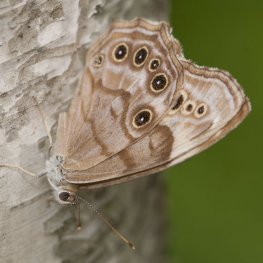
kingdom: Animalia
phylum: Arthropoda
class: Insecta
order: Lepidoptera
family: Nymphalidae
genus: Lethe
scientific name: Lethe anthedon
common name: Northern Pearly-Eye
